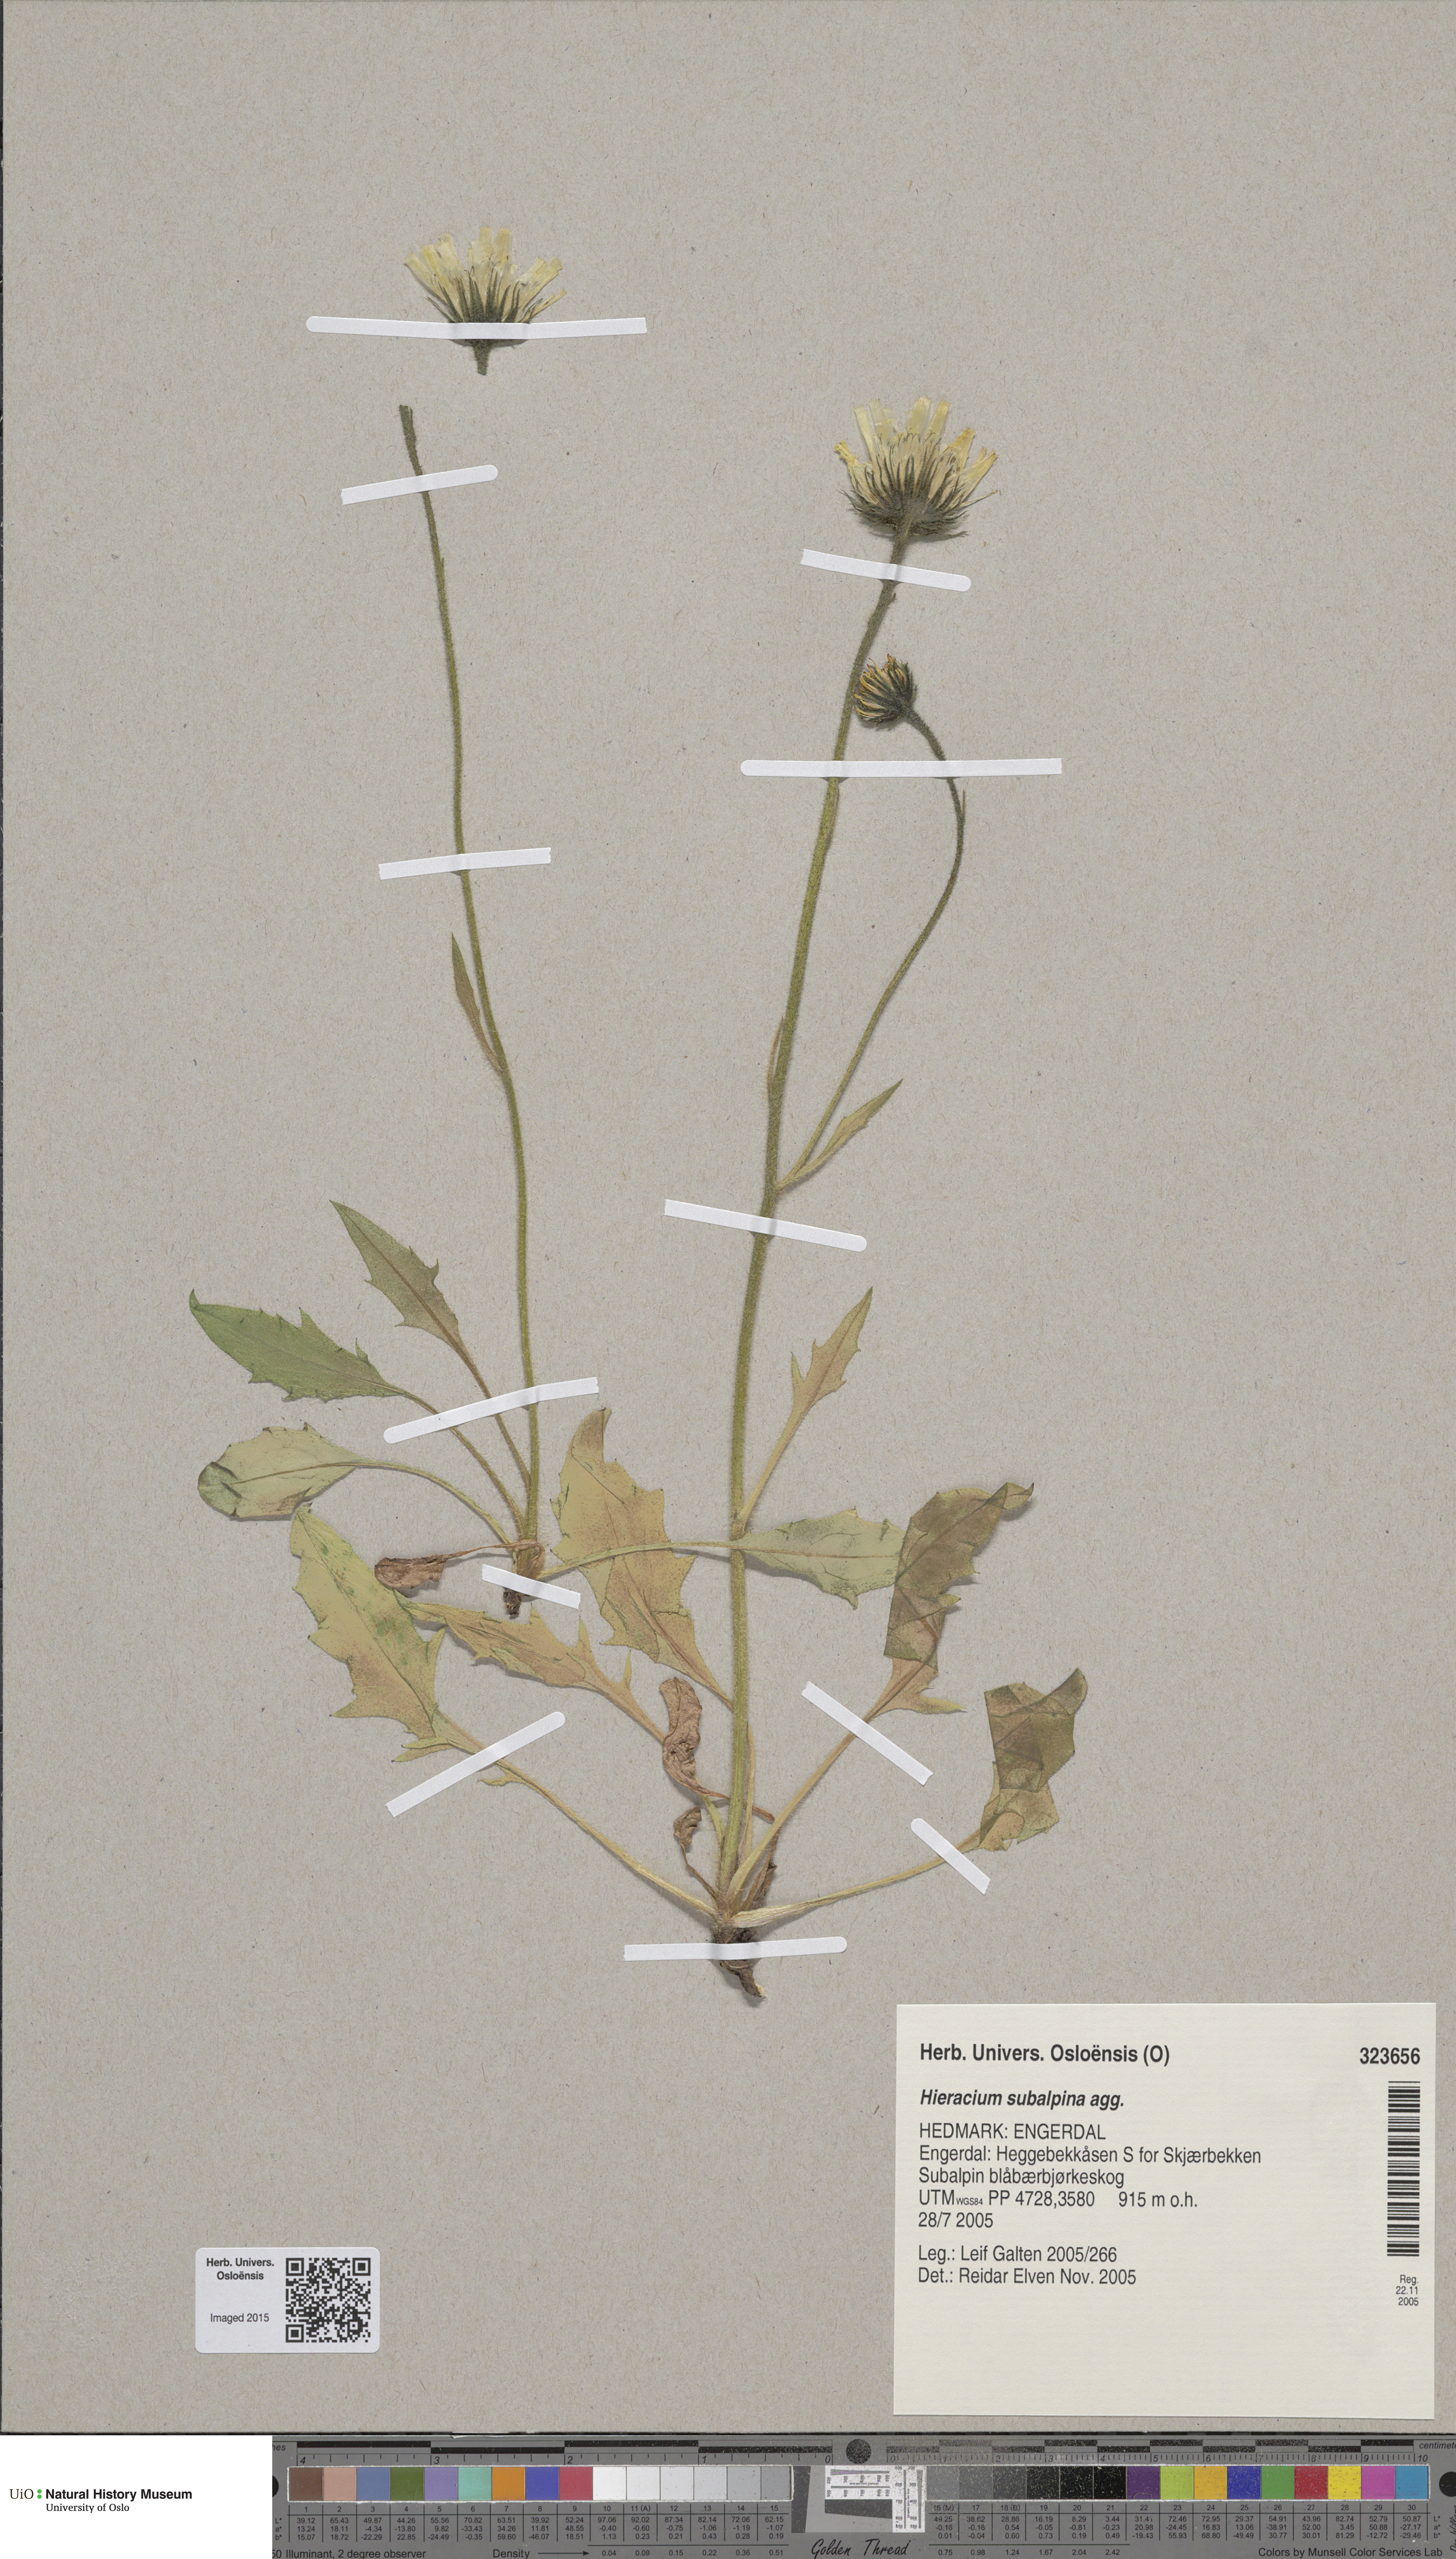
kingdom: Plantae
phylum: Tracheophyta
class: Magnoliopsida
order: Asterales
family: Asteraceae
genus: Hieracium
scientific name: Hieracium umbrosum
